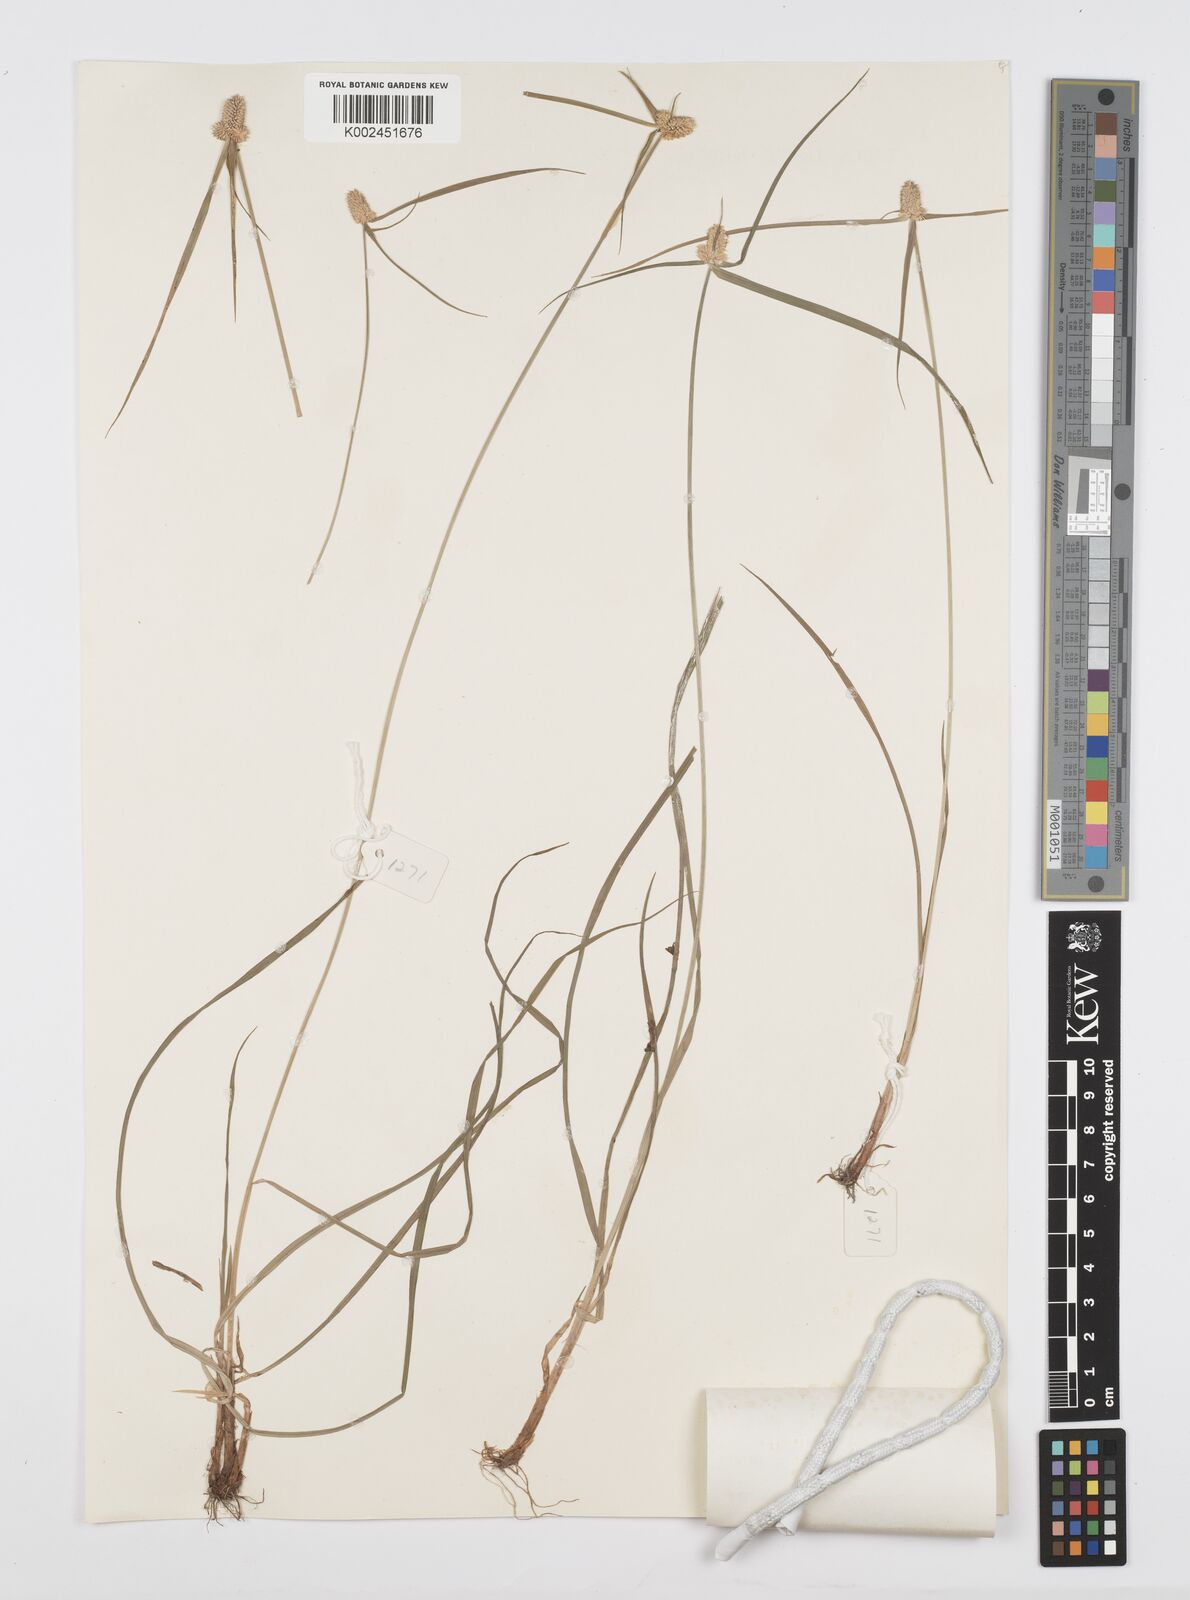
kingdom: Plantae
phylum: Tracheophyta
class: Liliopsida
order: Poales
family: Cyperaceae
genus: Cyperus
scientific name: Cyperus
